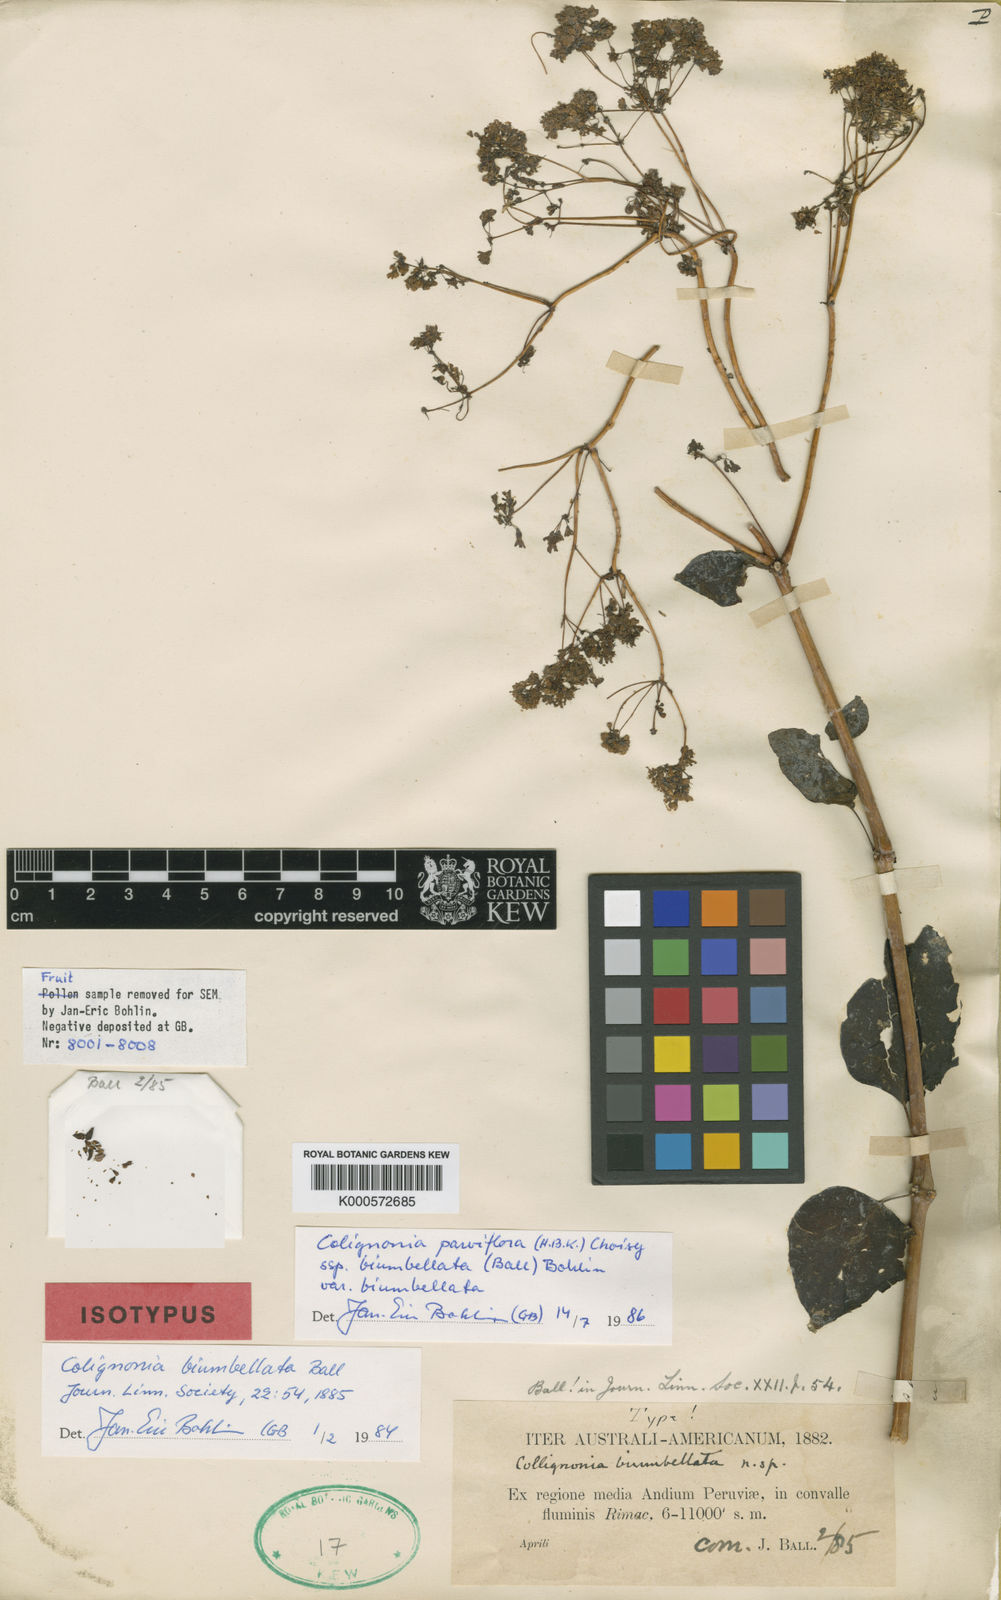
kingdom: Plantae
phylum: Tracheophyta
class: Magnoliopsida
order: Caryophyllales
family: Nyctaginaceae
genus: Colignonia
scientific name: Colignonia parviflora
